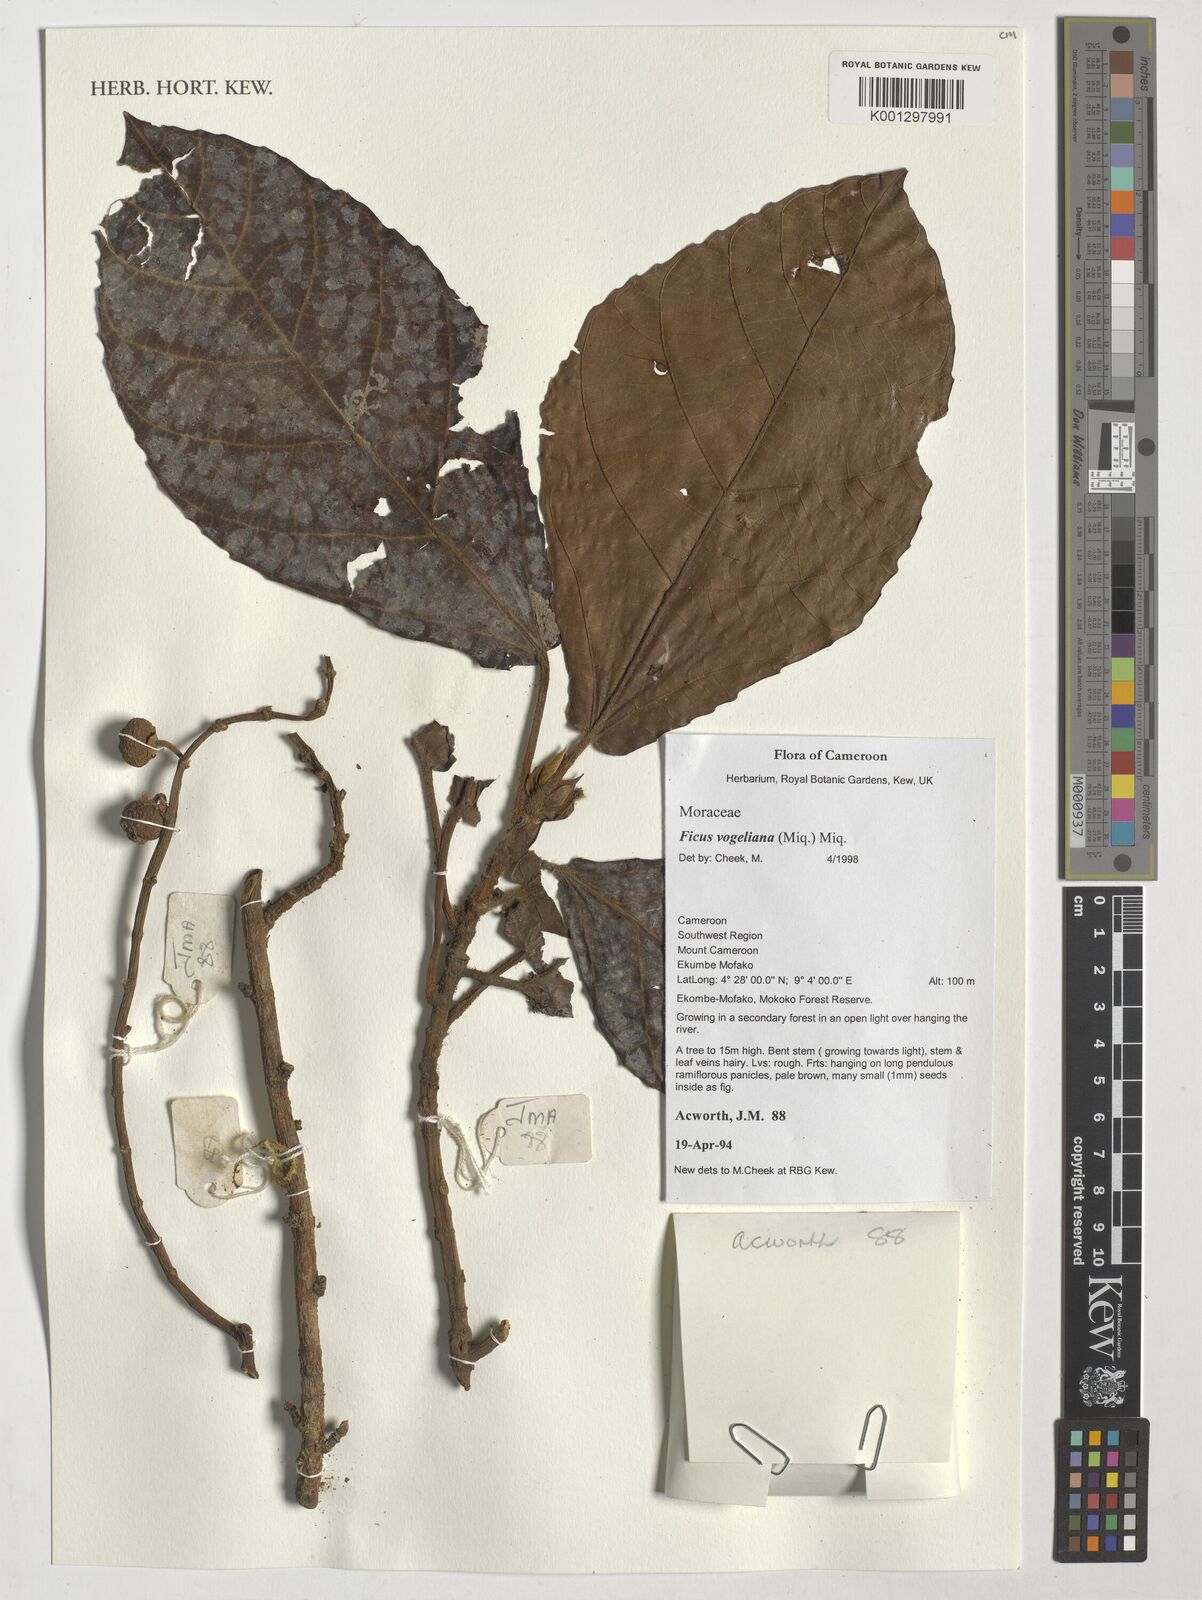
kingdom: Plantae
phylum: Tracheophyta
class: Magnoliopsida
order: Rosales
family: Moraceae
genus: Ficus
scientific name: Ficus vogeliana
